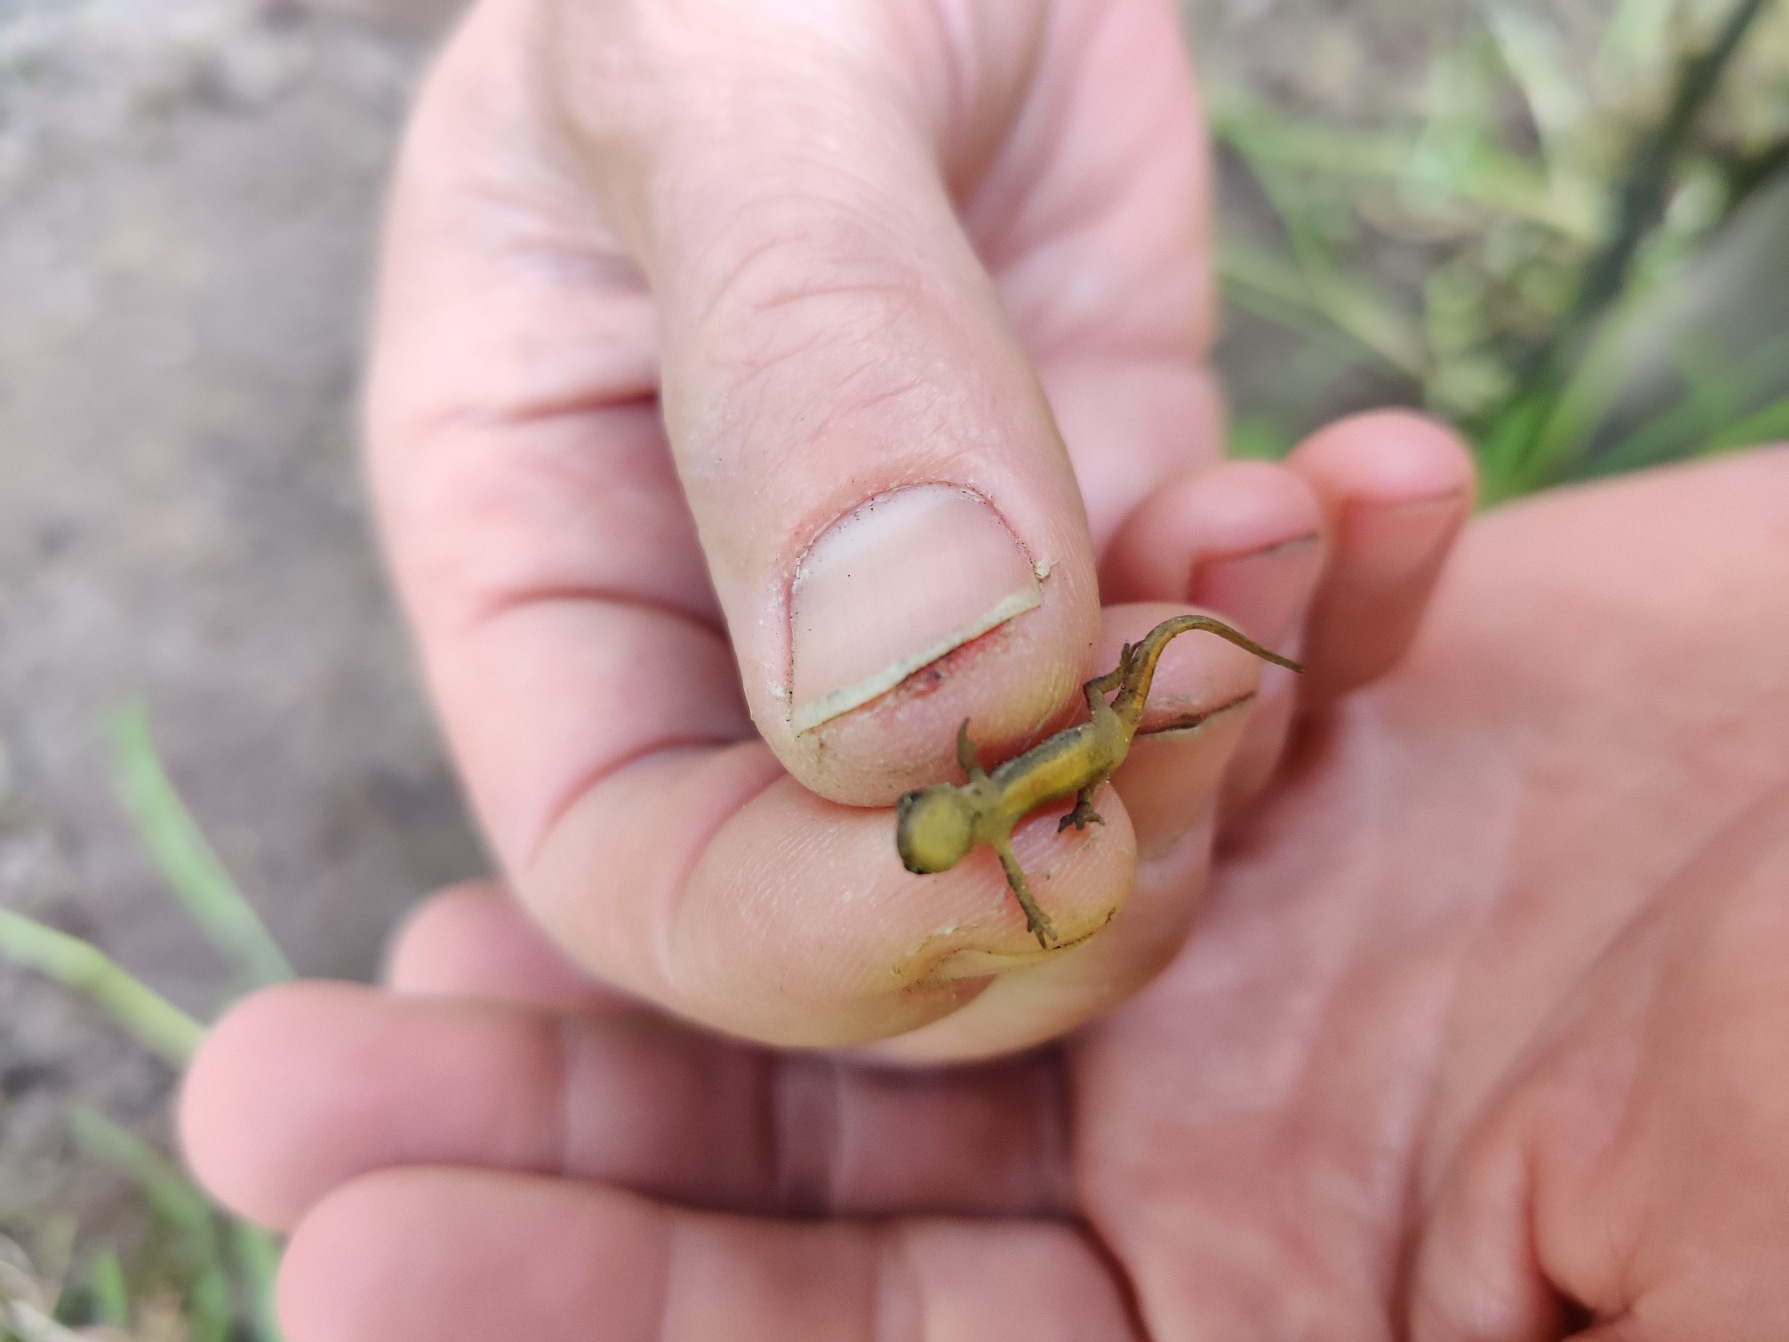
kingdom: Animalia
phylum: Chordata
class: Amphibia
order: Caudata
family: Salamandridae
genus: Lissotriton
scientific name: Lissotriton vulgaris
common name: Lille vandsalamander
